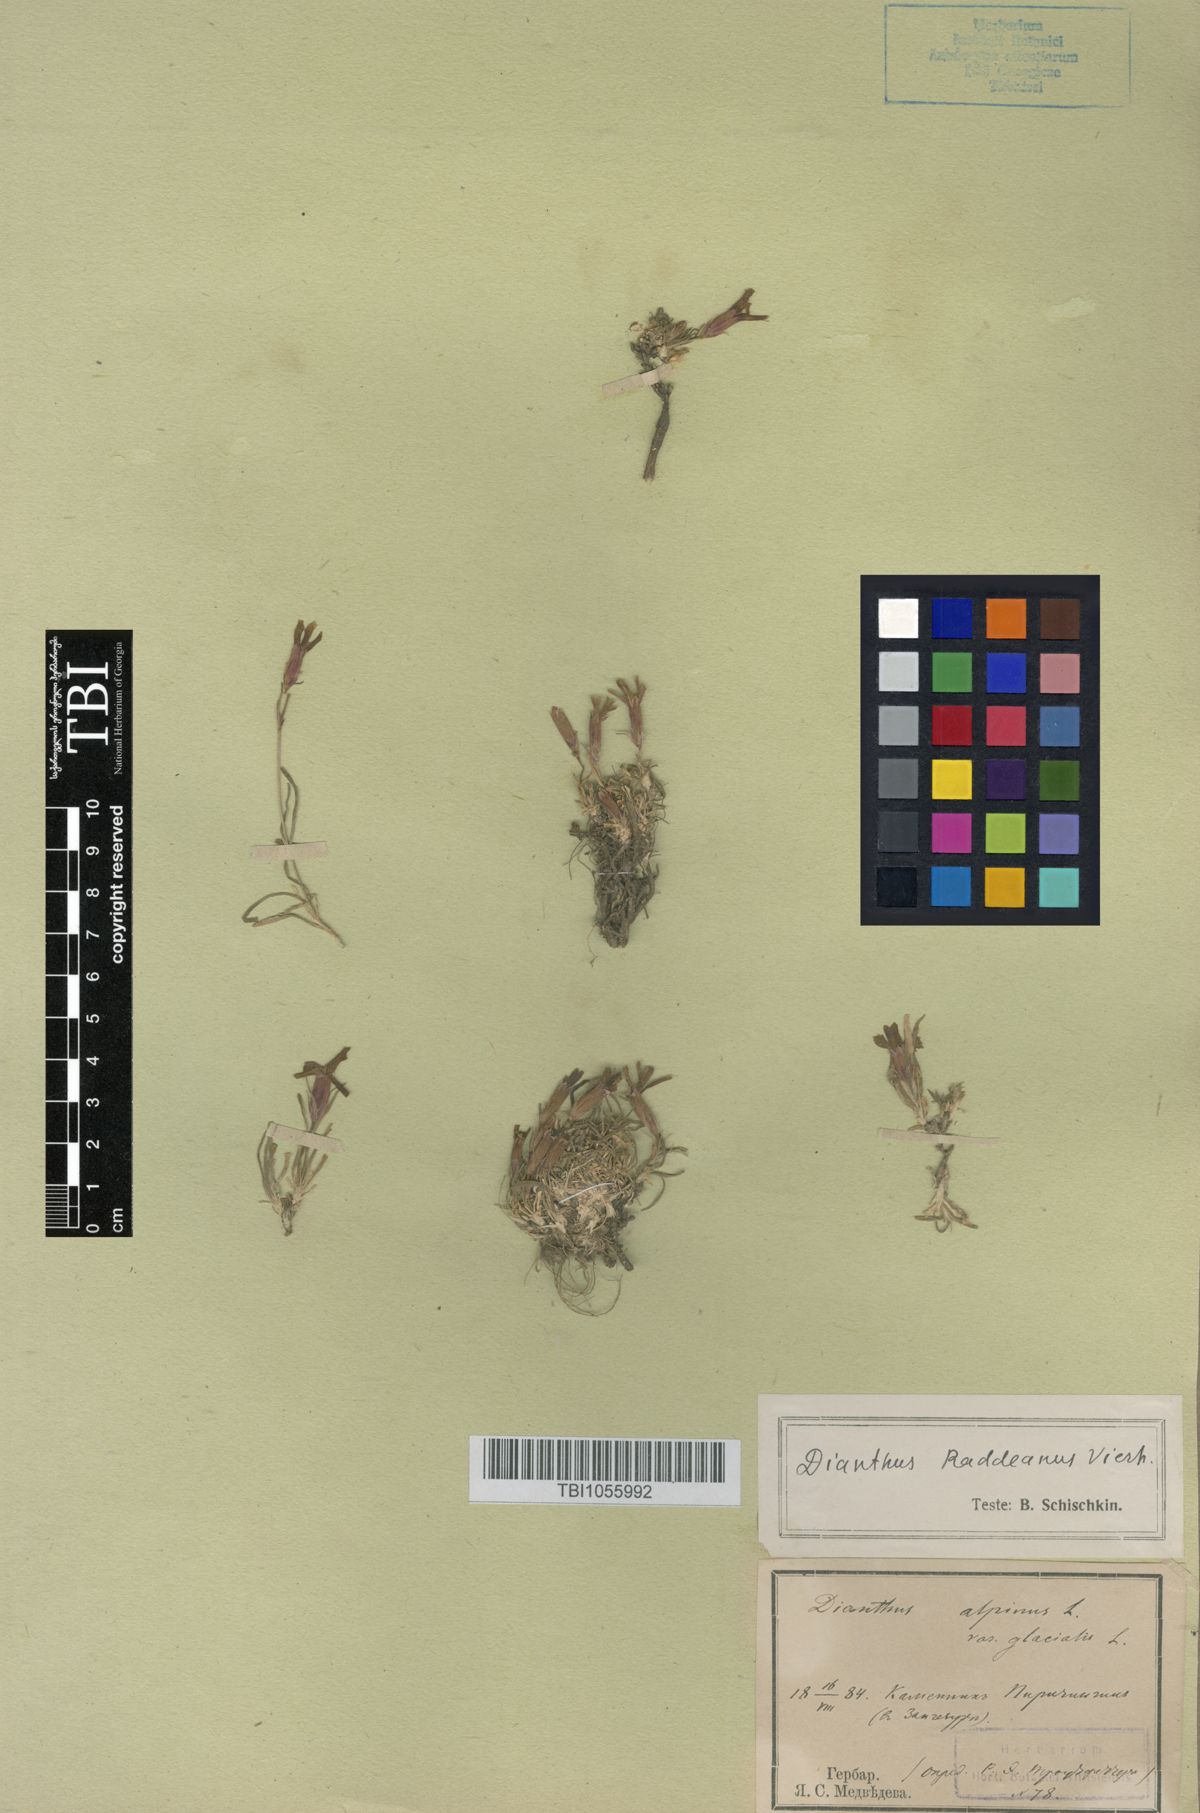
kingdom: Plantae
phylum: Tracheophyta
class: Magnoliopsida
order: Caryophyllales
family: Caryophyllaceae
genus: Dianthus
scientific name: Dianthus raddeanus
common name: Radde's pink
